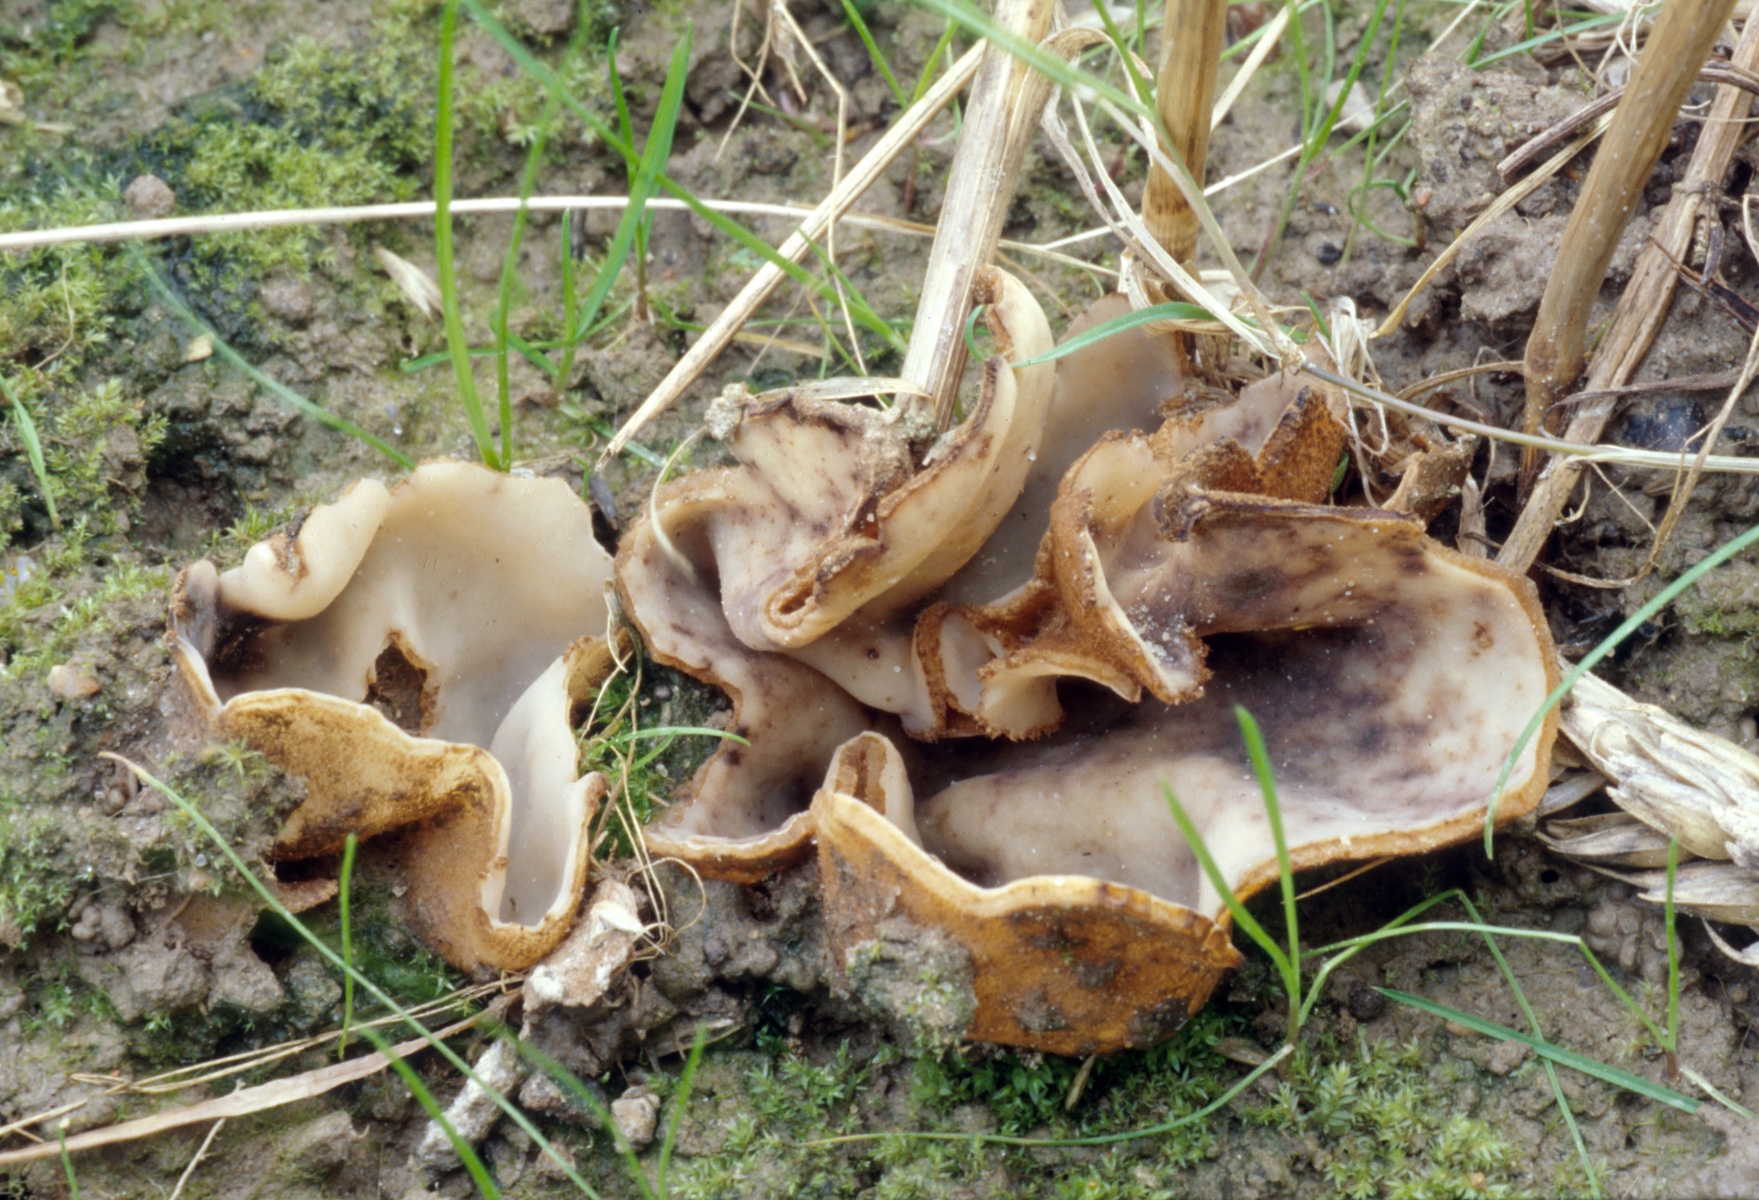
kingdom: Fungi
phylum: Ascomycota
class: Pezizomycetes
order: Pezizales
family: Pyronemataceae
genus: Geopora
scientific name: Geopora foliacea
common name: høst-jordbæger
